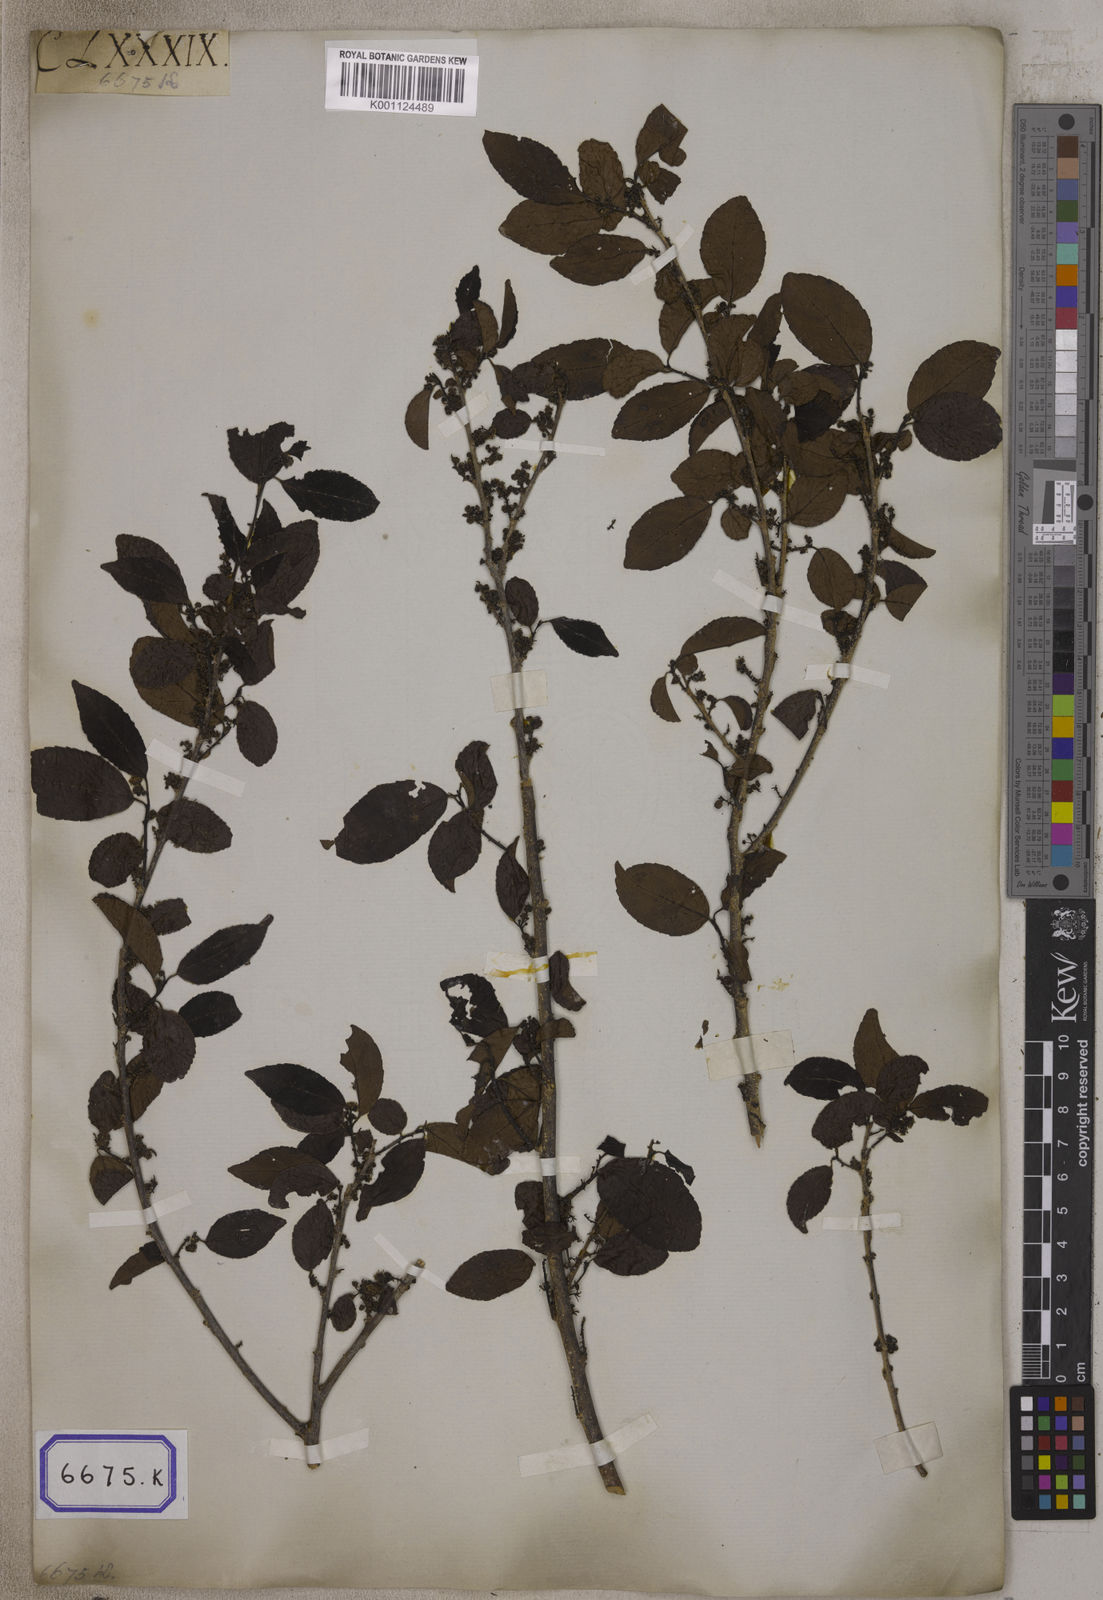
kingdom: Plantae
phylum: Tracheophyta
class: Magnoliopsida
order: Malpighiales
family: Salicaceae
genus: Flacourtia
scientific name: Flacourtia
